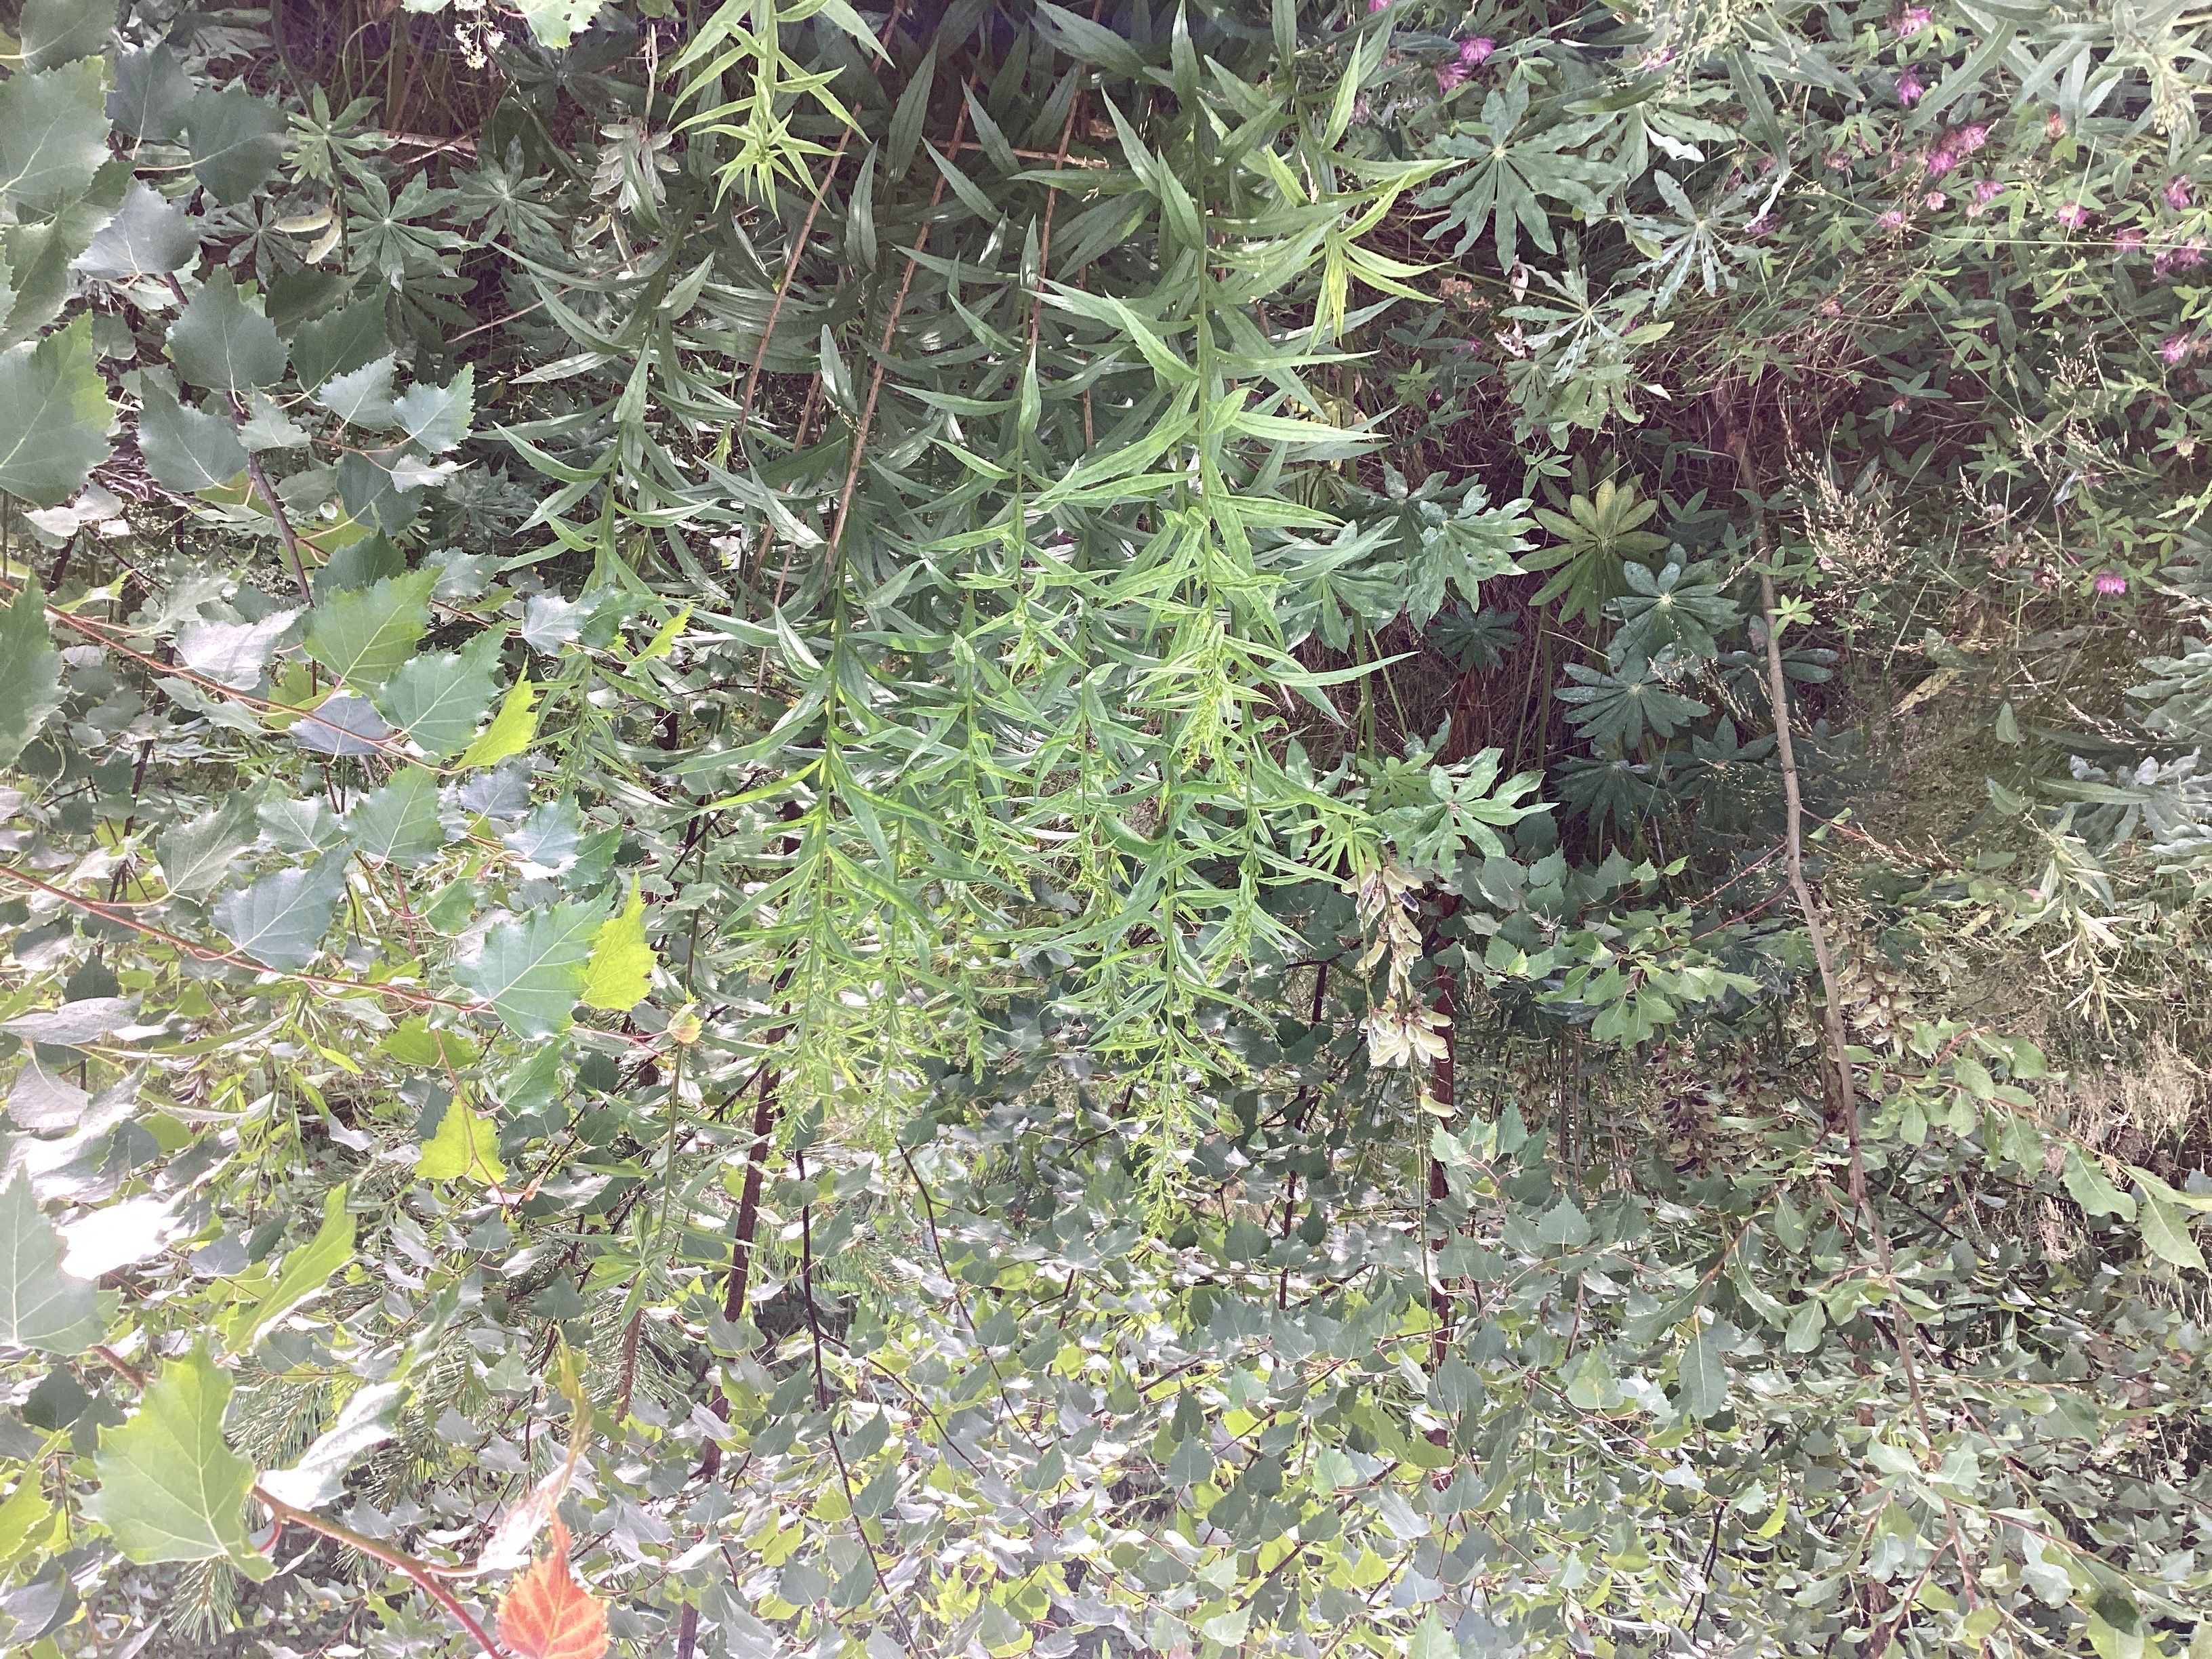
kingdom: Plantae
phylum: Tracheophyta
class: Magnoliopsida
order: Asterales
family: Asteraceae
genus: Solidago
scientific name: Solidago canadensis
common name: kanadagullris
